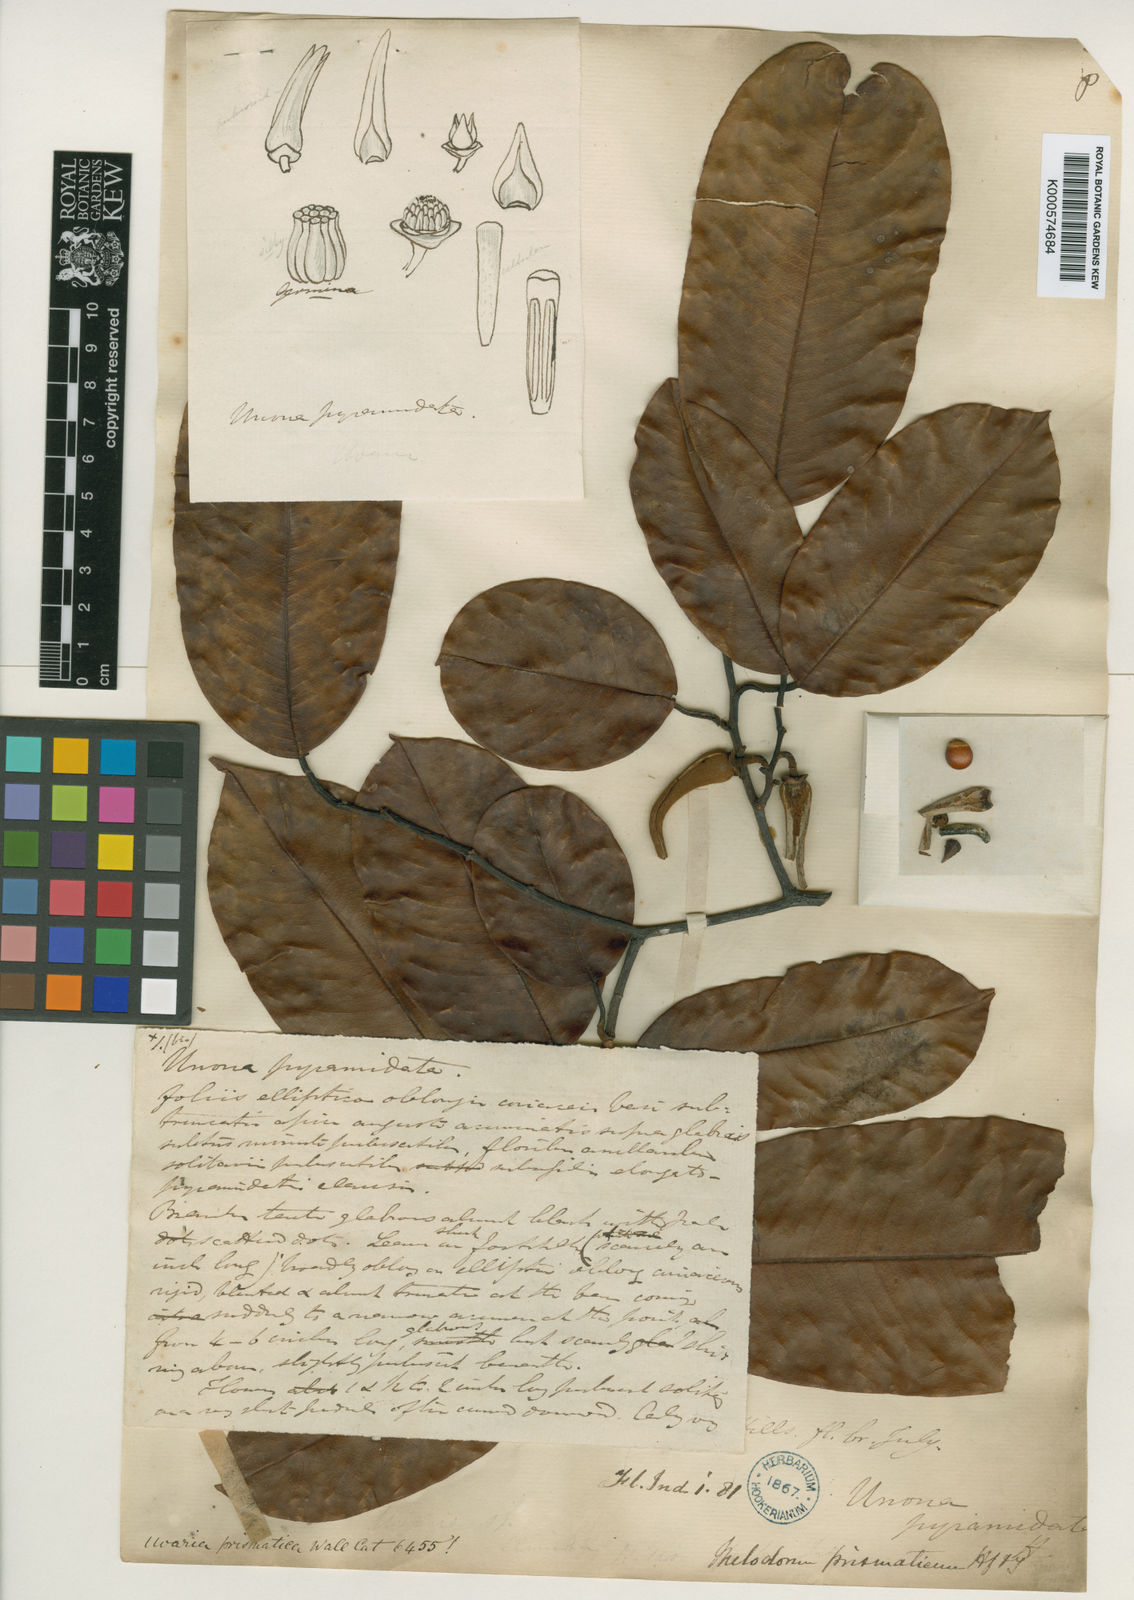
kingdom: Plantae
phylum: Tracheophyta
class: Magnoliopsida
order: Magnoliales
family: Annonaceae
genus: Pyramidanthe
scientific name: Pyramidanthe
